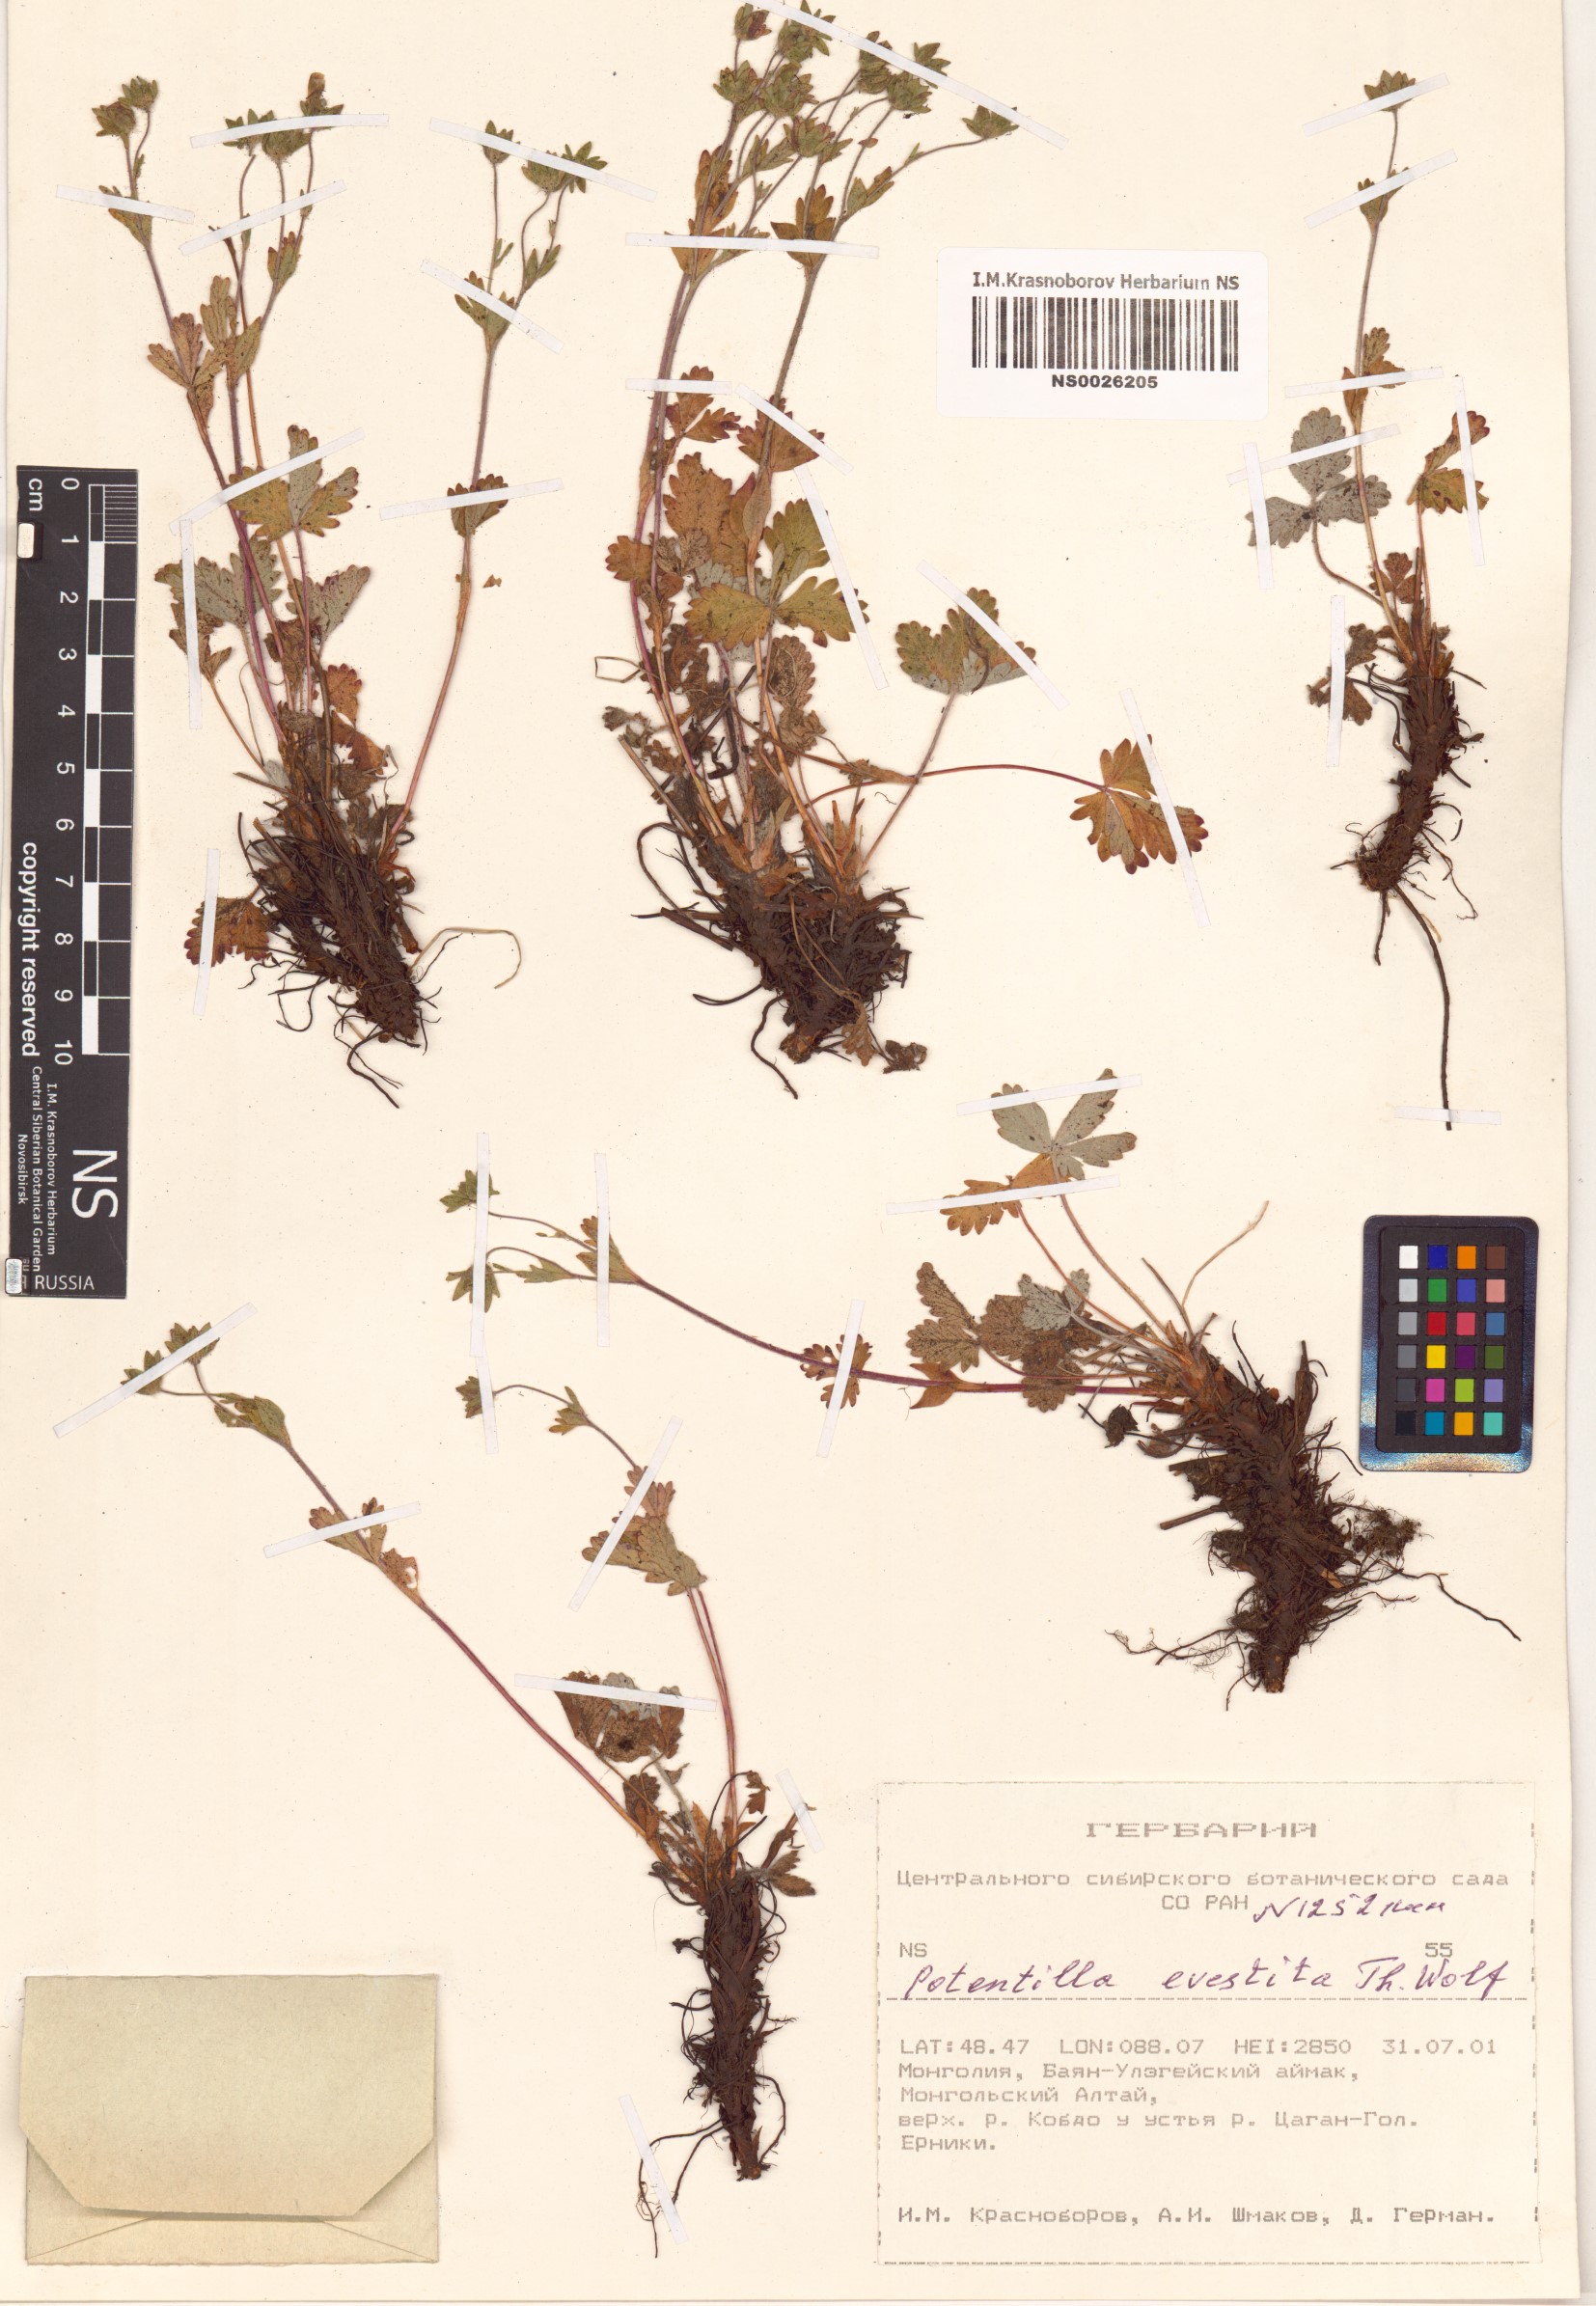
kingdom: Plantae
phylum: Tracheophyta
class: Magnoliopsida
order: Rosales
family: Rosaceae
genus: Potentilla
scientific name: Potentilla evestita
